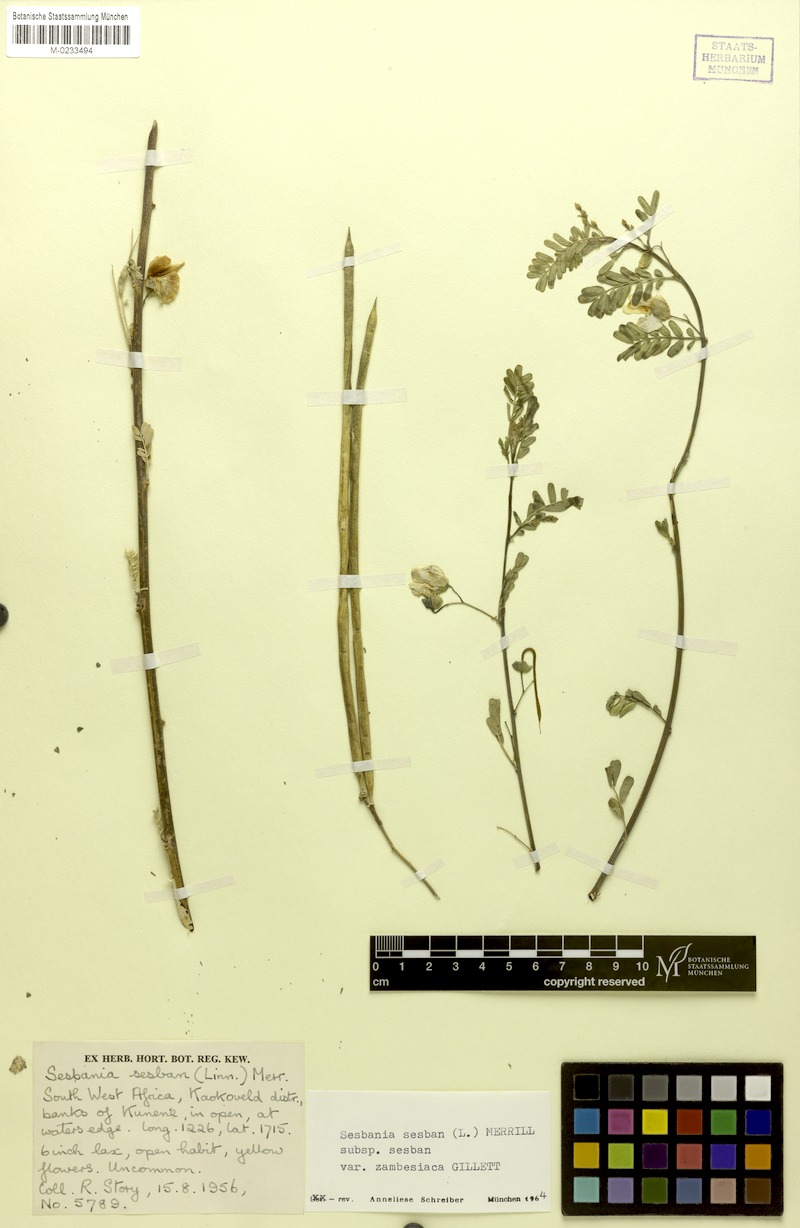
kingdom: Plantae
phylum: Tracheophyta
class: Magnoliopsida
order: Fabales
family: Fabaceae
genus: Sesbania
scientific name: Sesbania sesban
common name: Egyptian sesban
